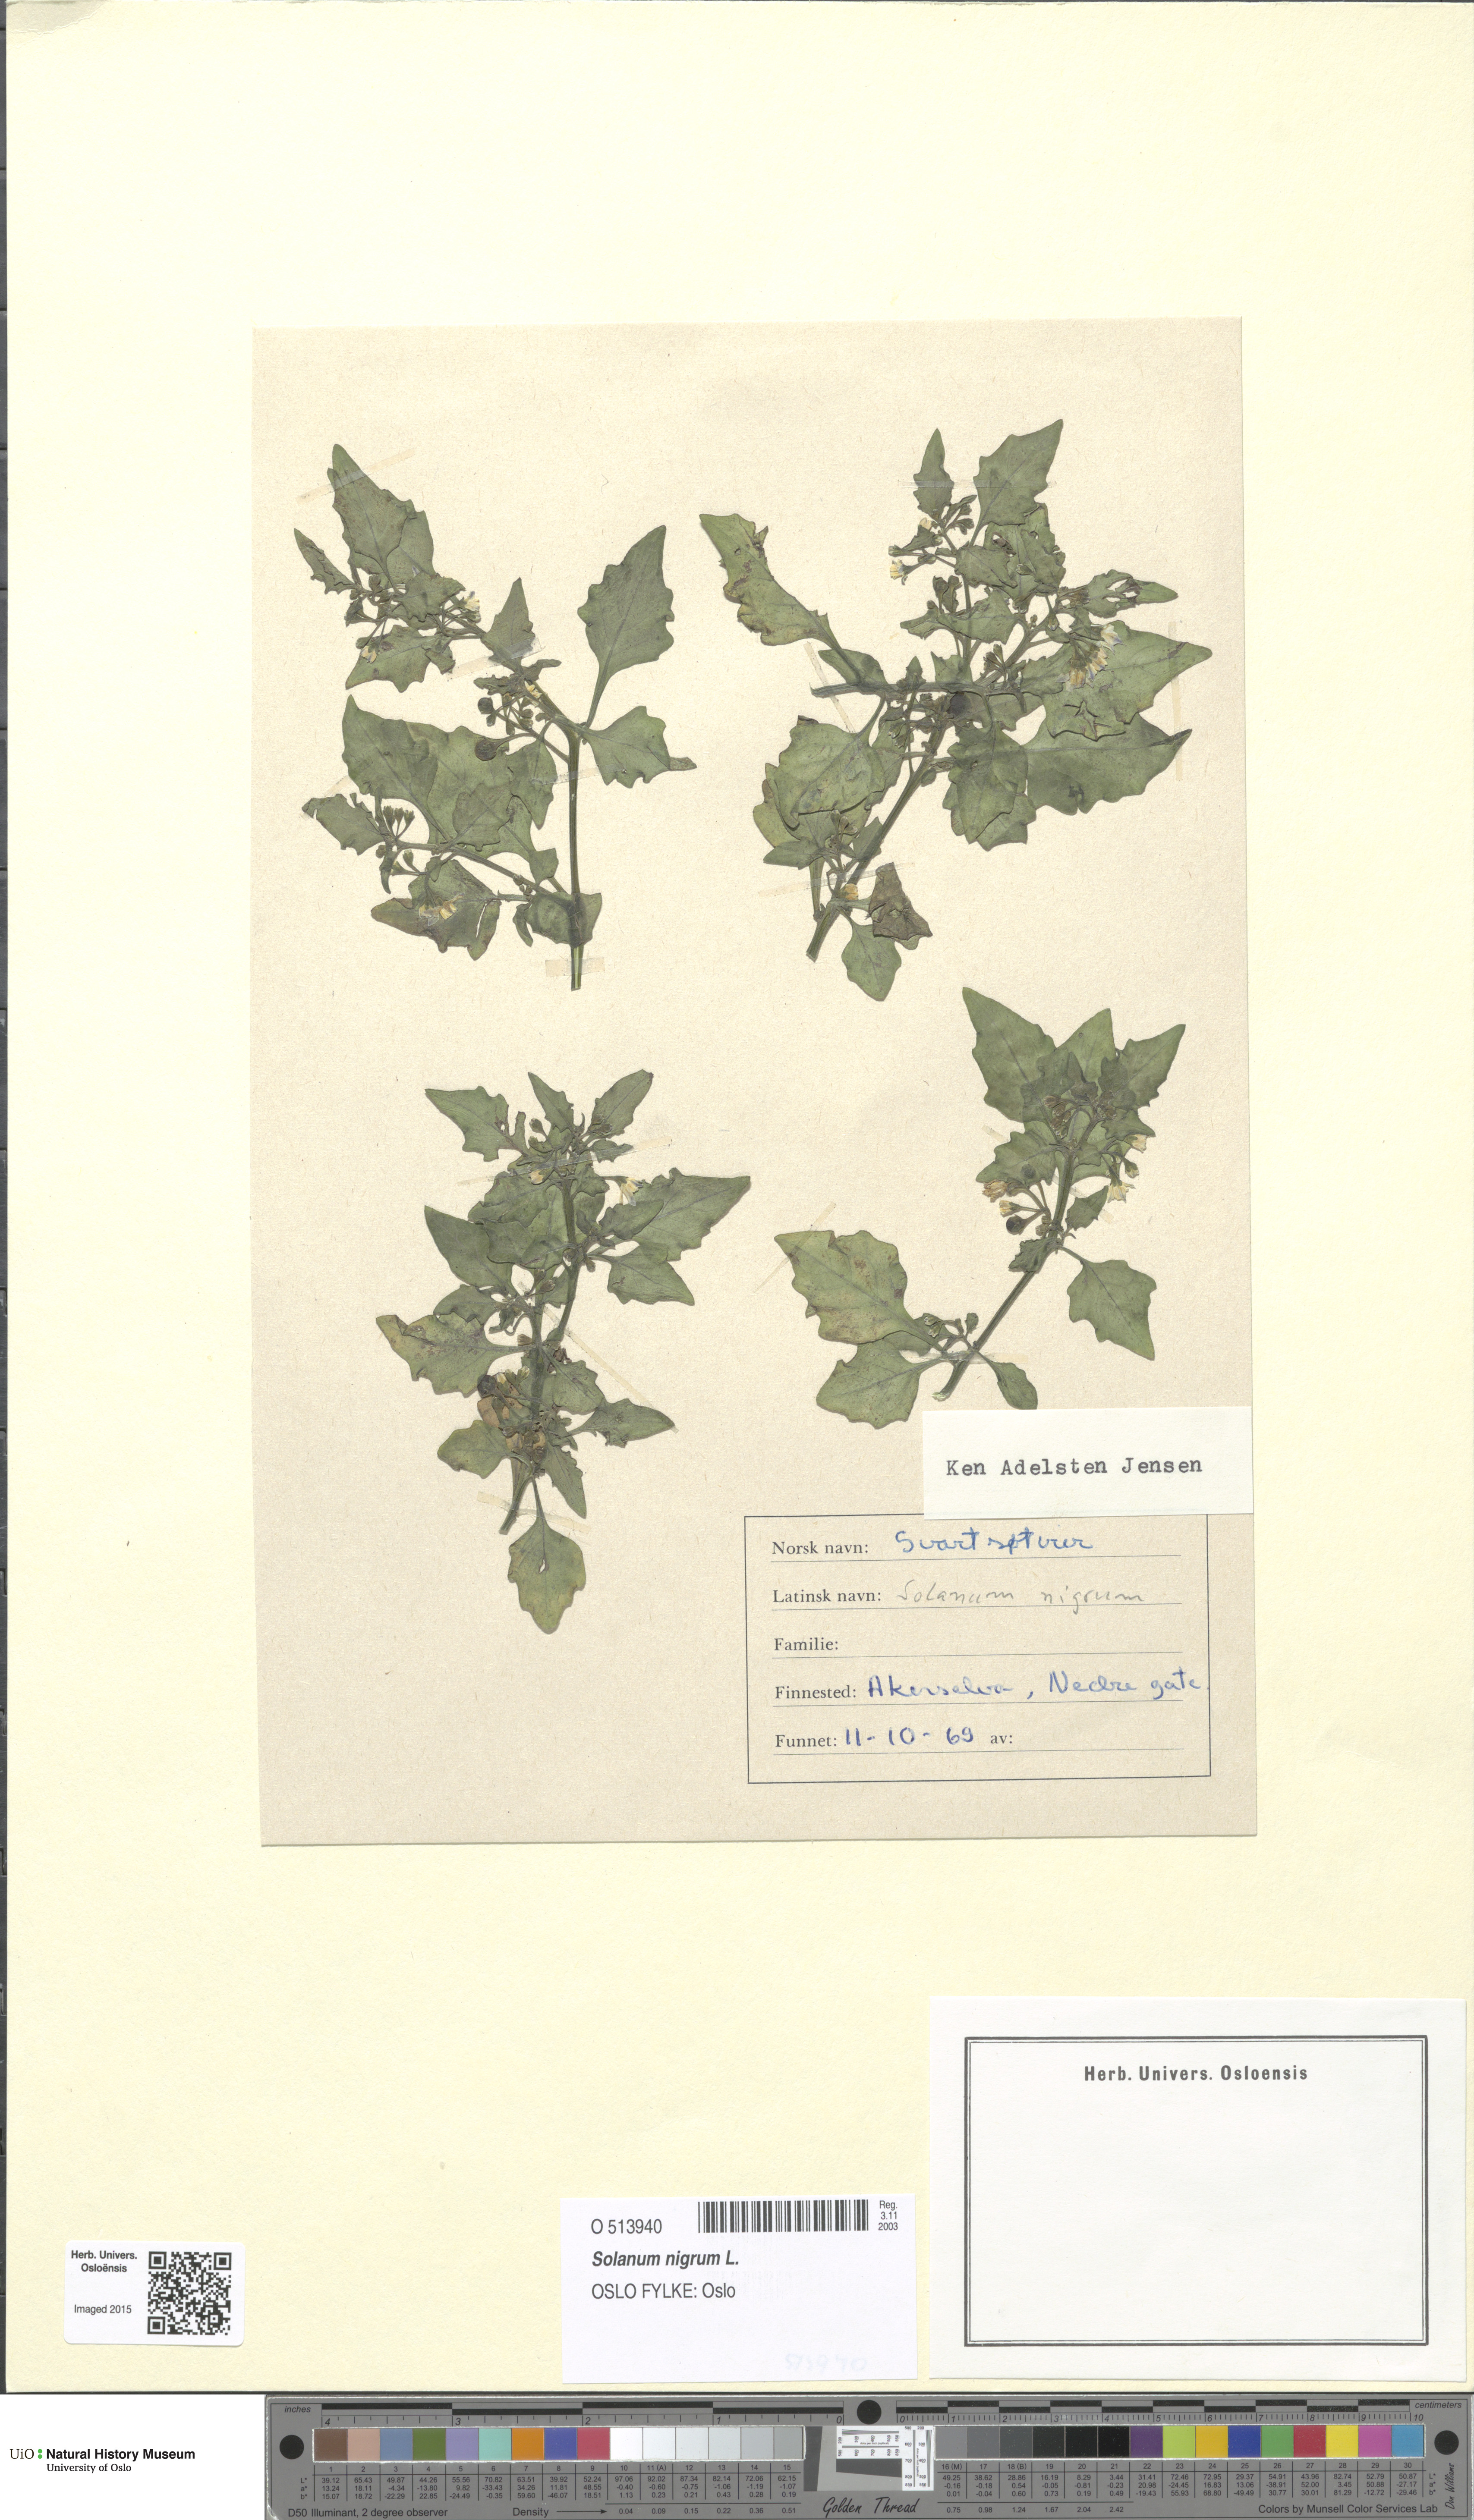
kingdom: Plantae
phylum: Tracheophyta
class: Magnoliopsida
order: Solanales
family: Solanaceae
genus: Solanum
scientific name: Solanum nigrum
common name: Black nightshade
